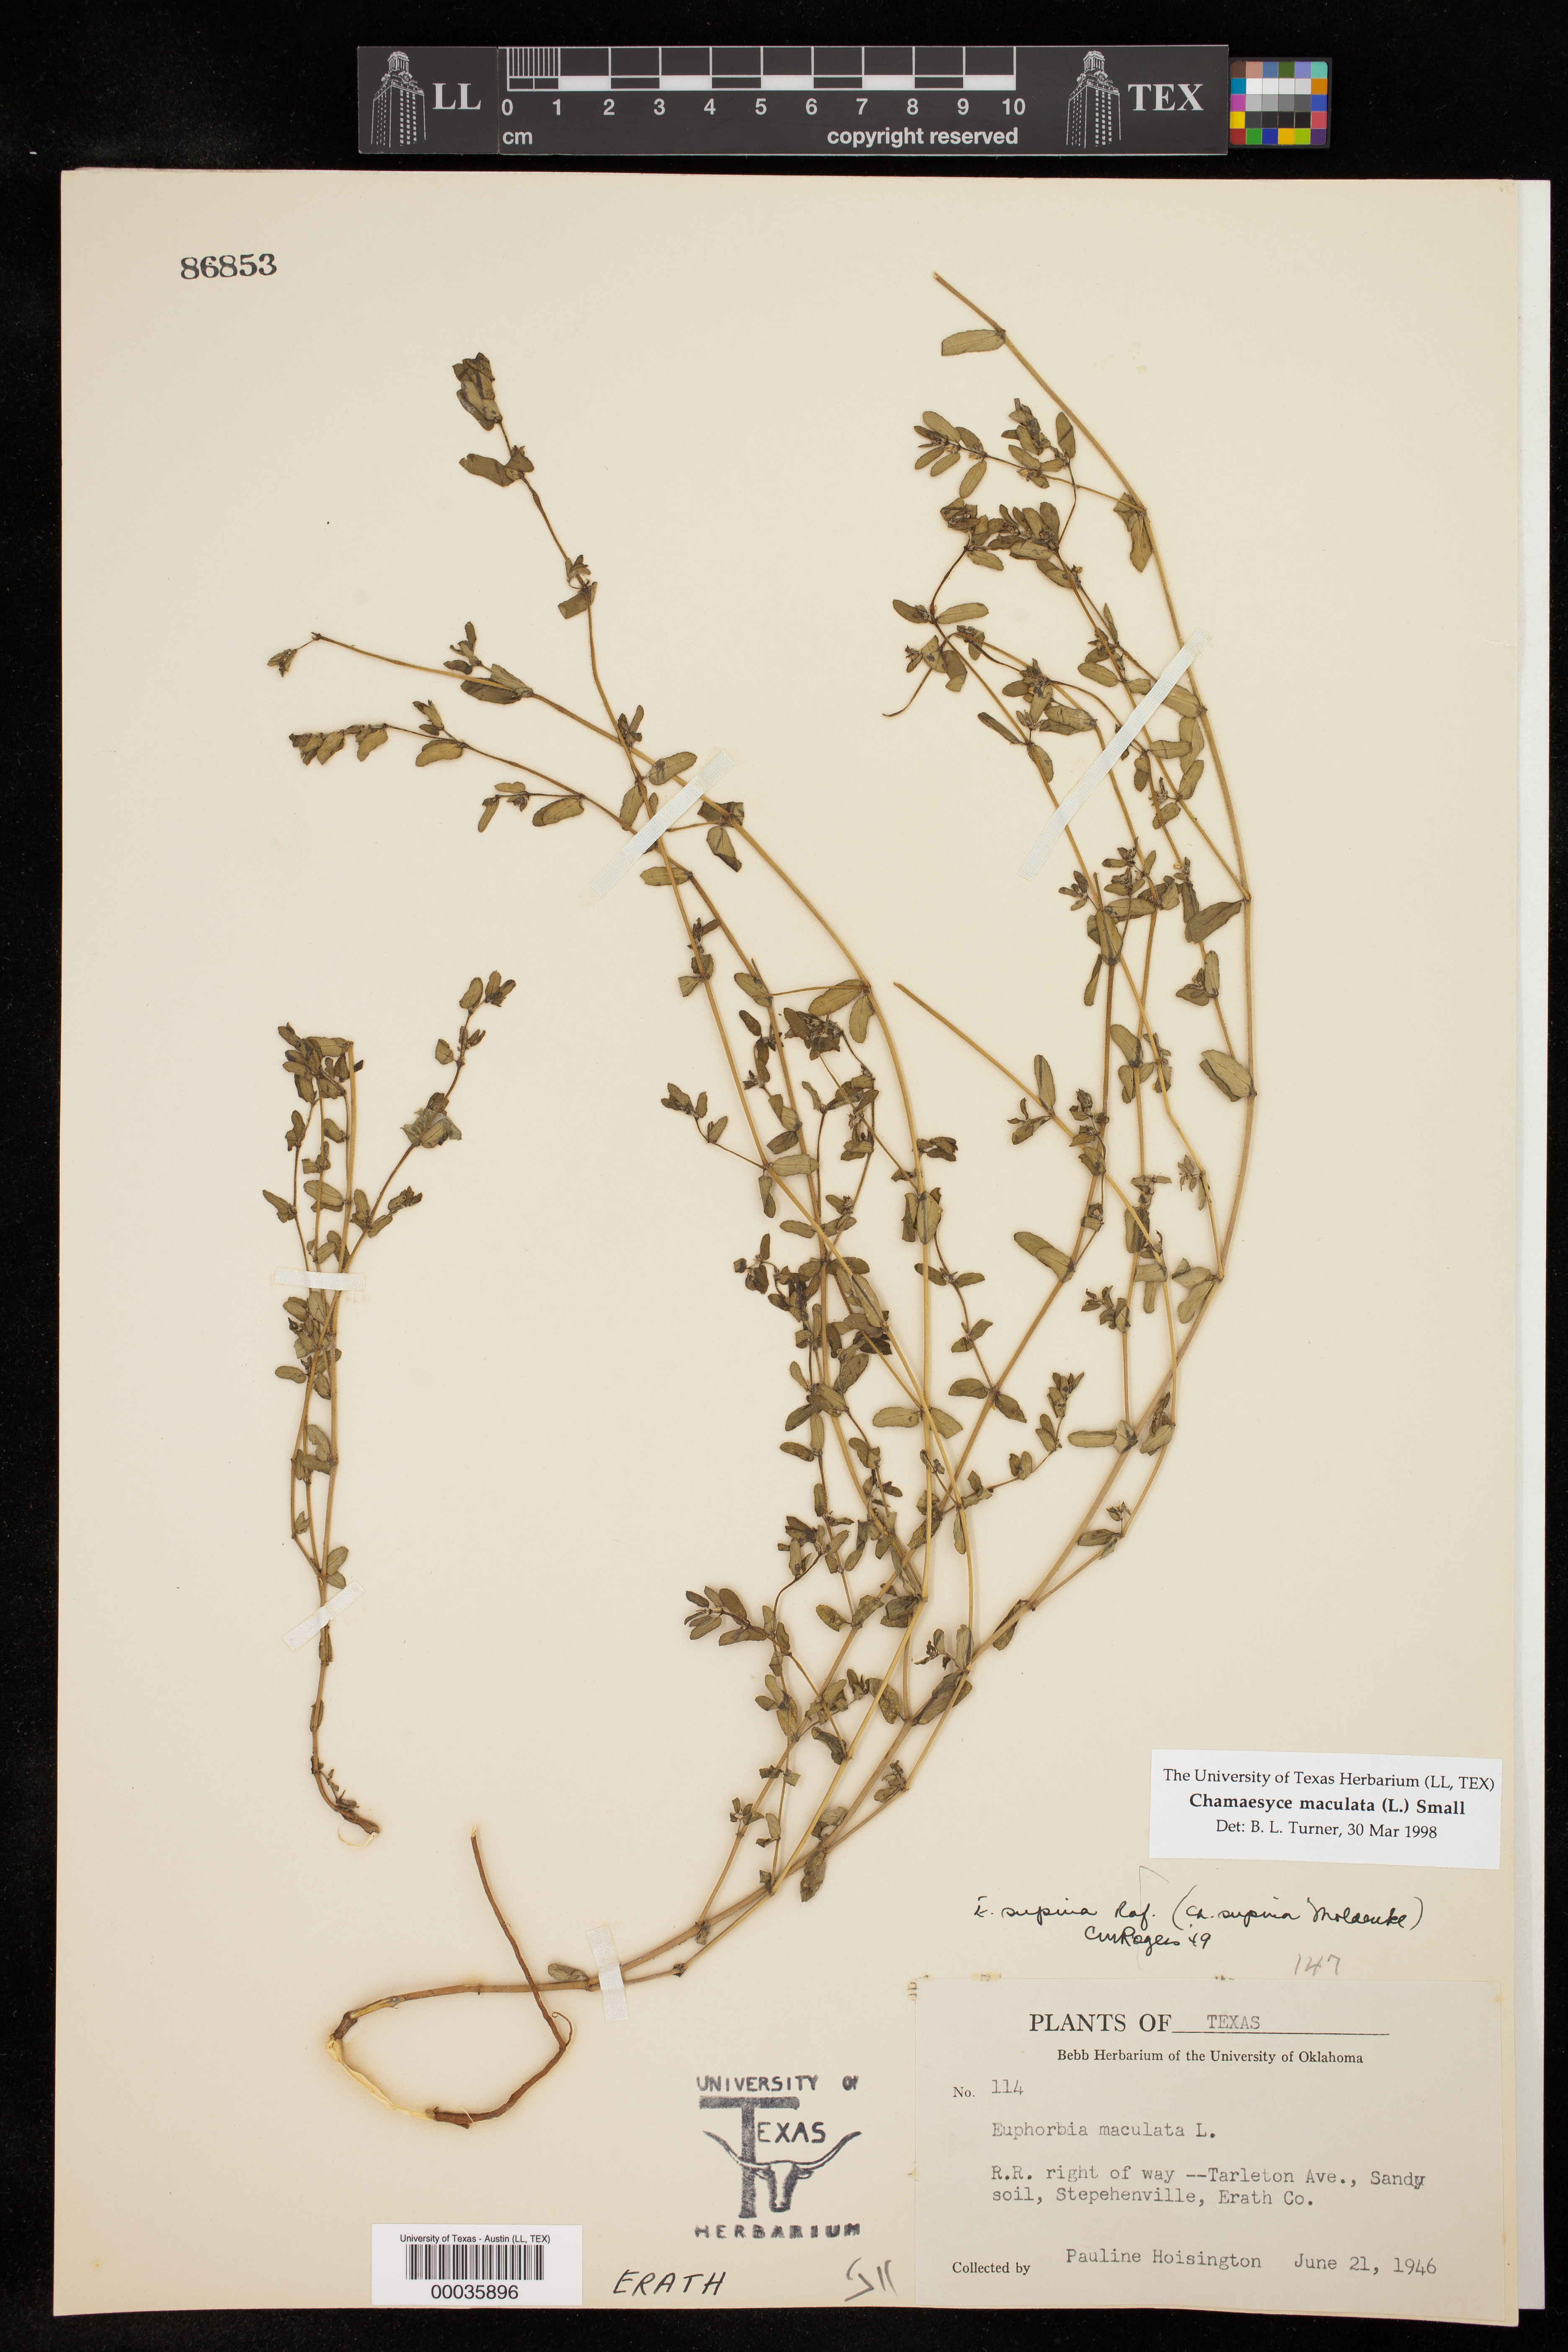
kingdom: Plantae
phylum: Tracheophyta
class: Magnoliopsida
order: Malpighiales
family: Euphorbiaceae
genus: Euphorbia
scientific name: Euphorbia maculata
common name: Spotted spurge
